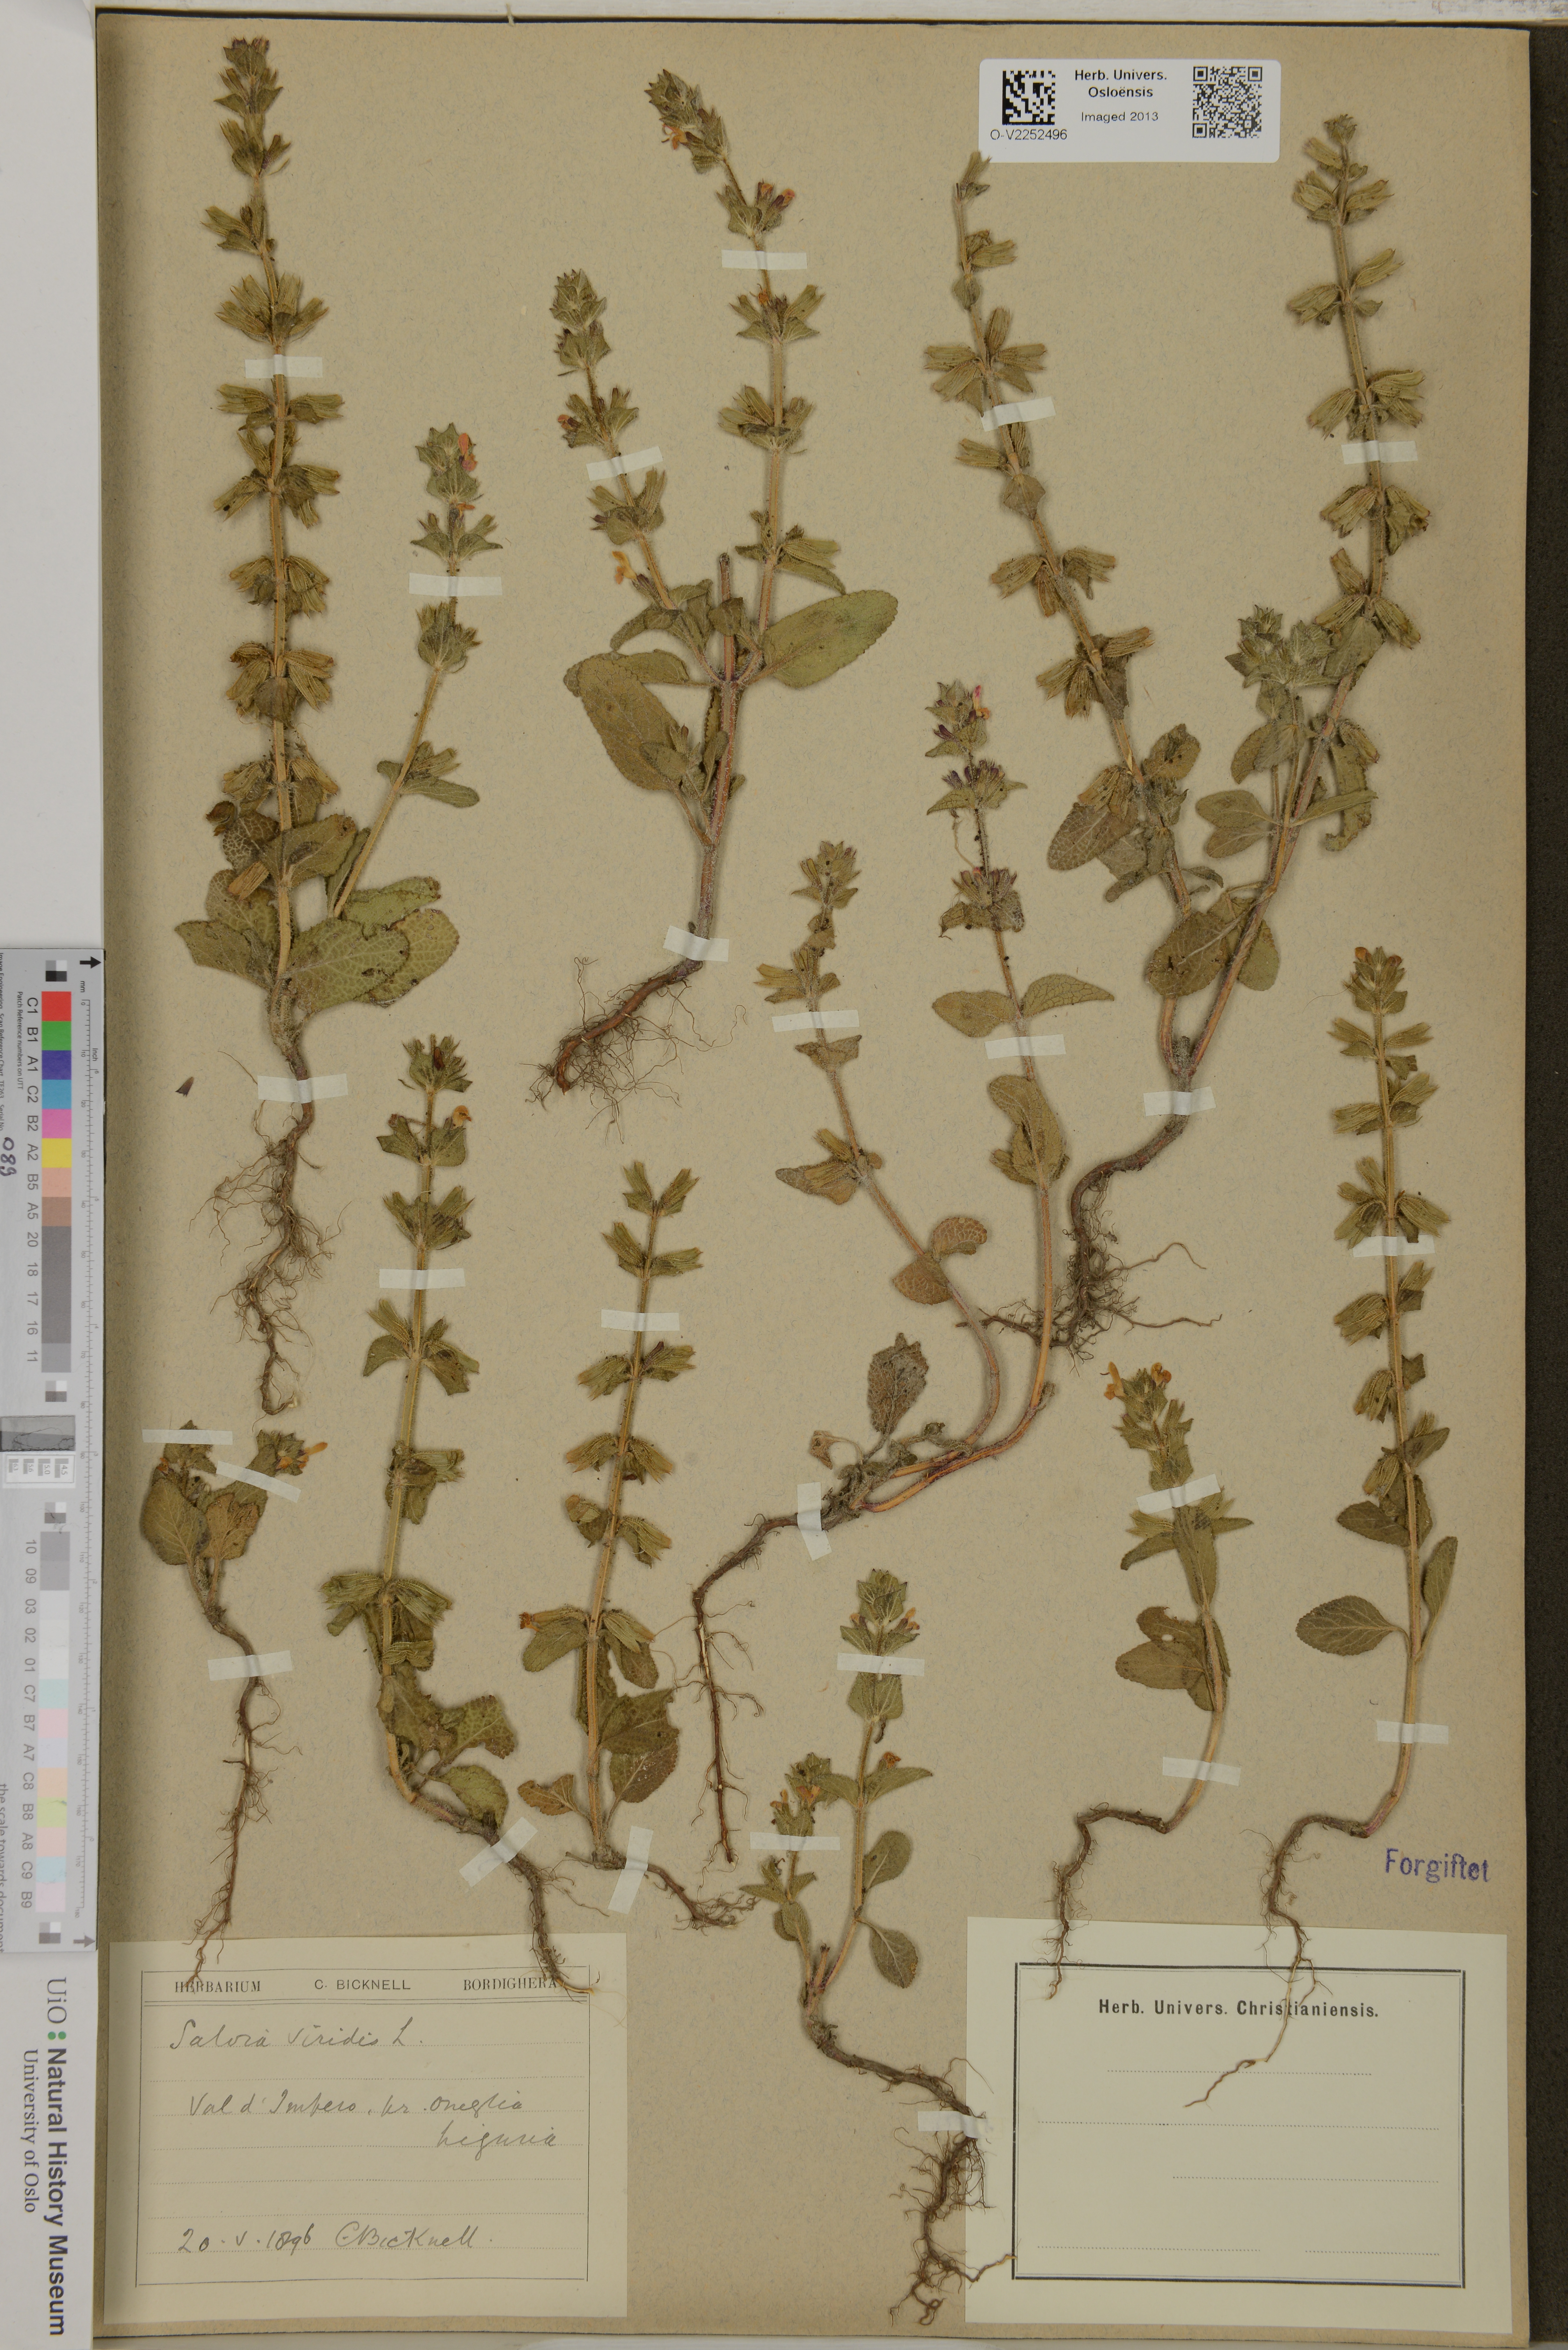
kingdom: Plantae
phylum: Tracheophyta
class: Magnoliopsida
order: Lamiales
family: Lamiaceae
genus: Salvia
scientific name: Salvia viridis
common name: Annual clary
